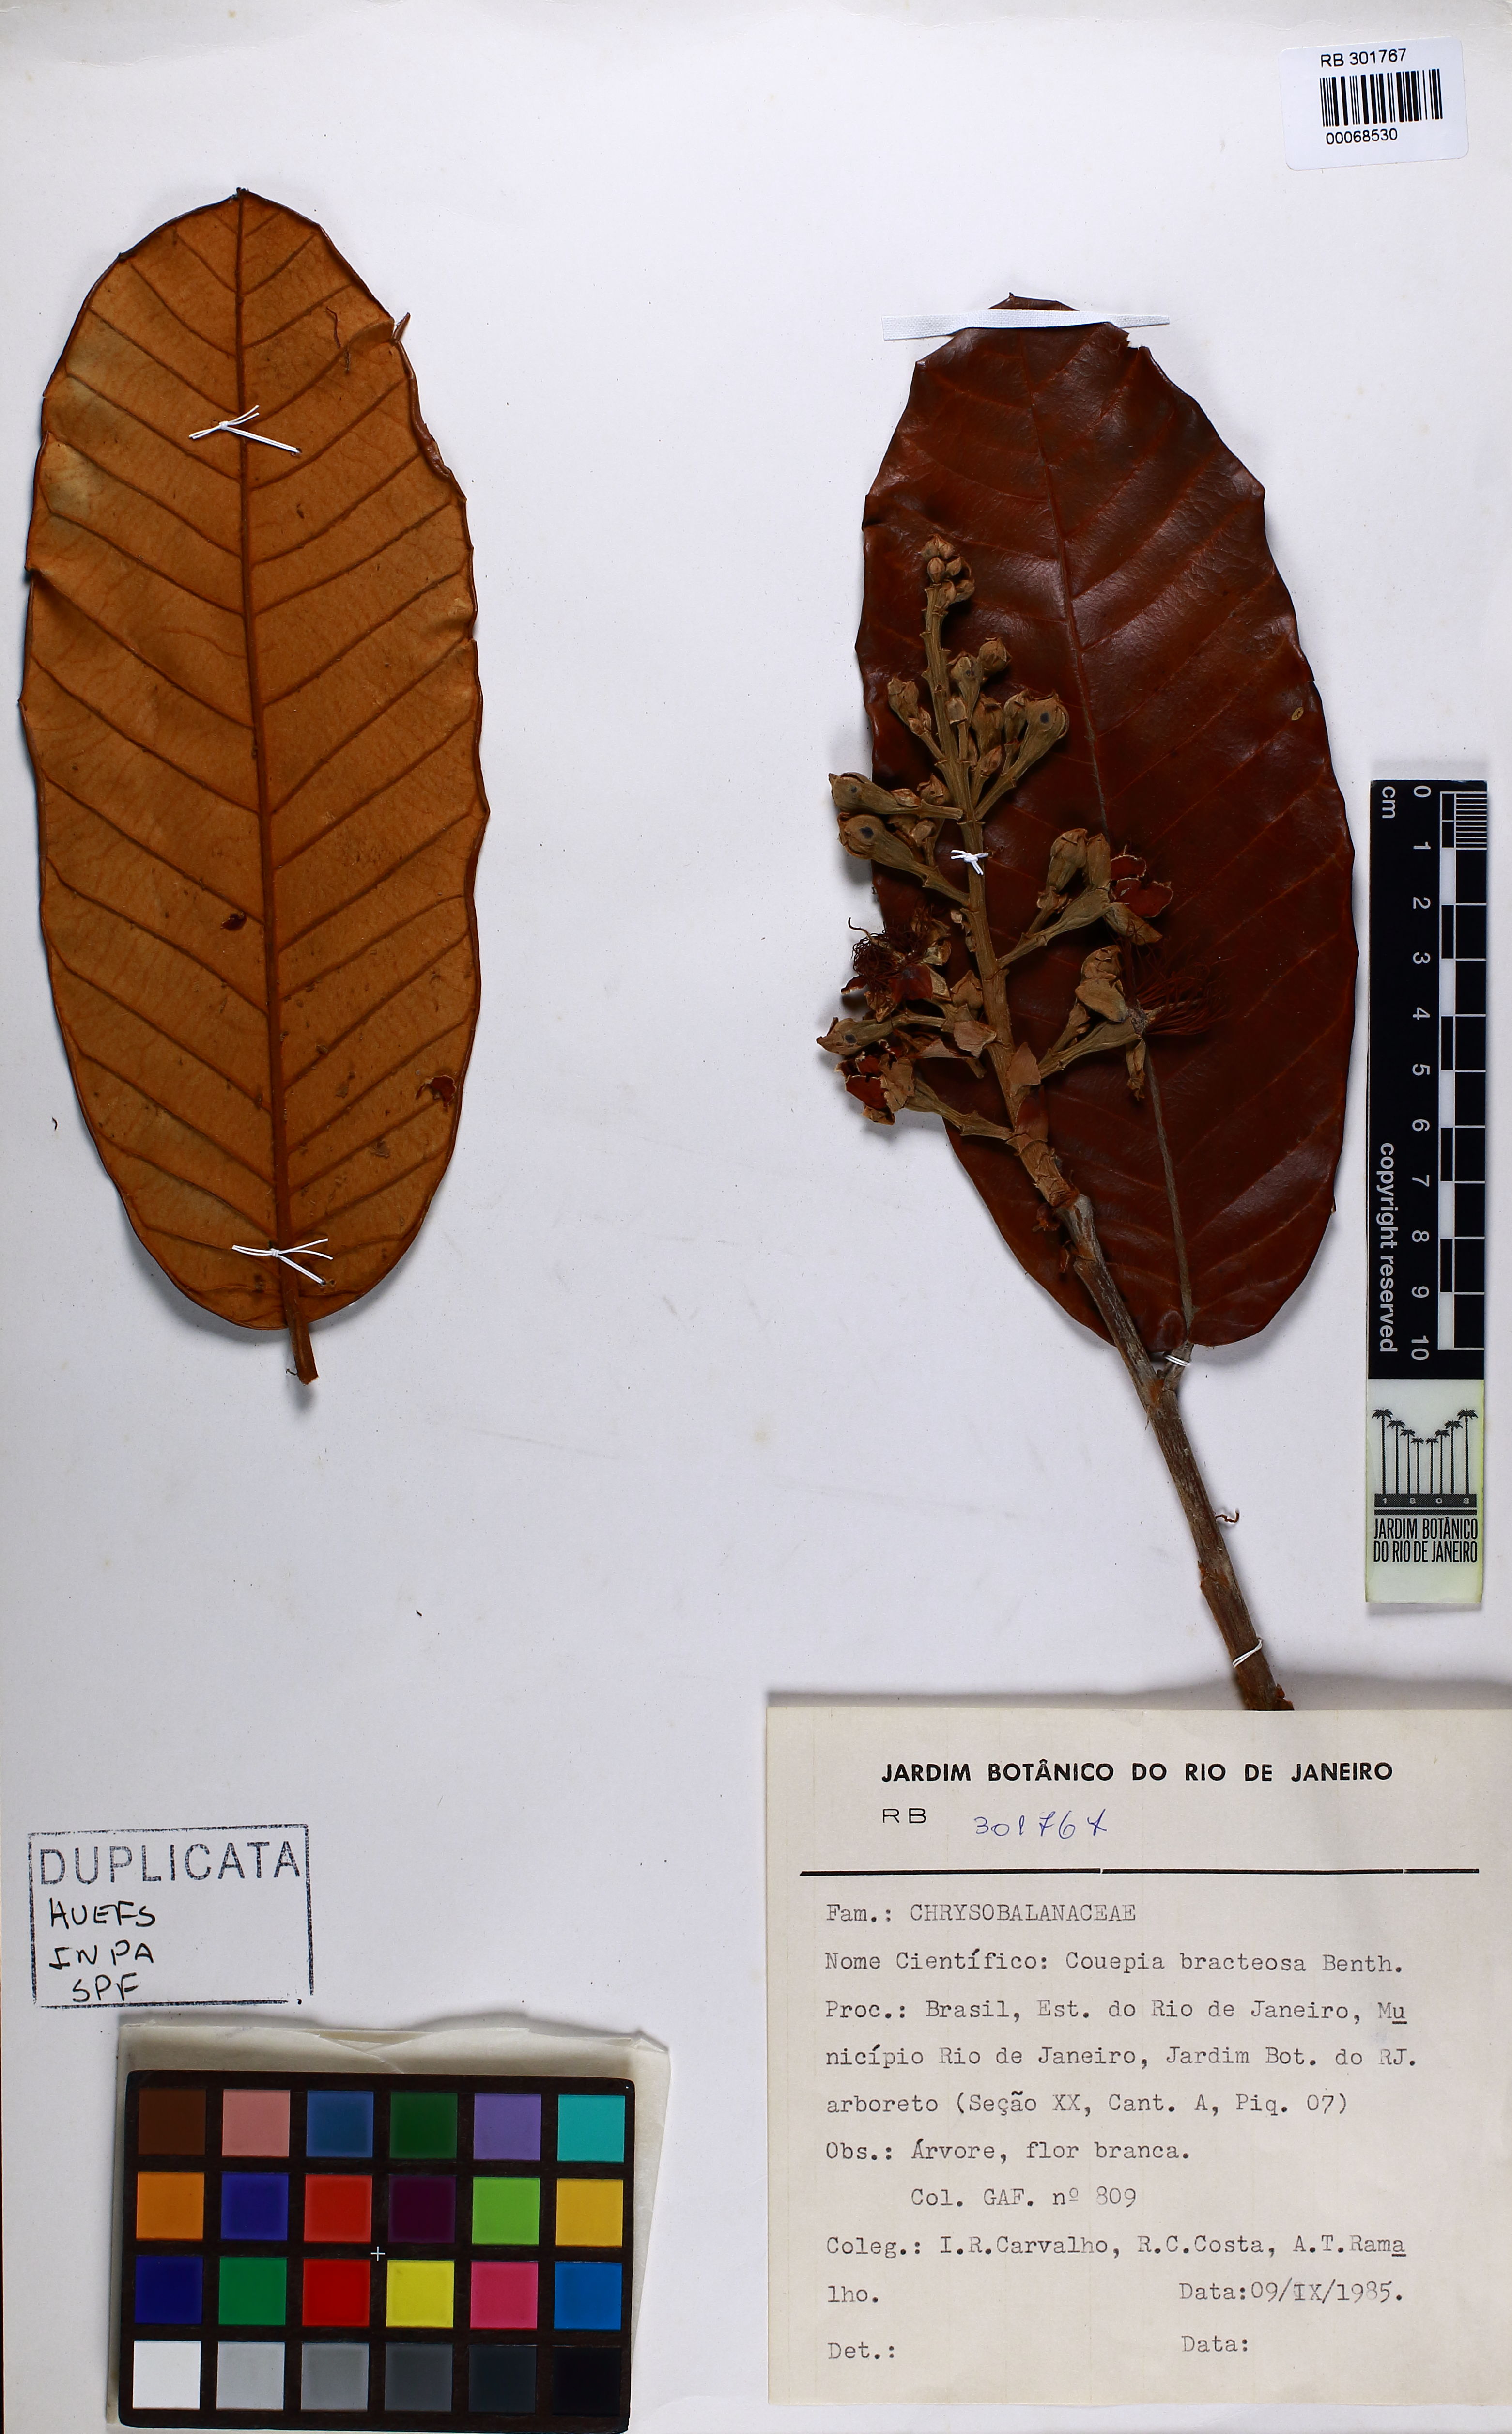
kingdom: Plantae
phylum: Tracheophyta
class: Magnoliopsida
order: Malpighiales
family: Chrysobalanaceae
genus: Couepia
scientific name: Couepia bracteosa
